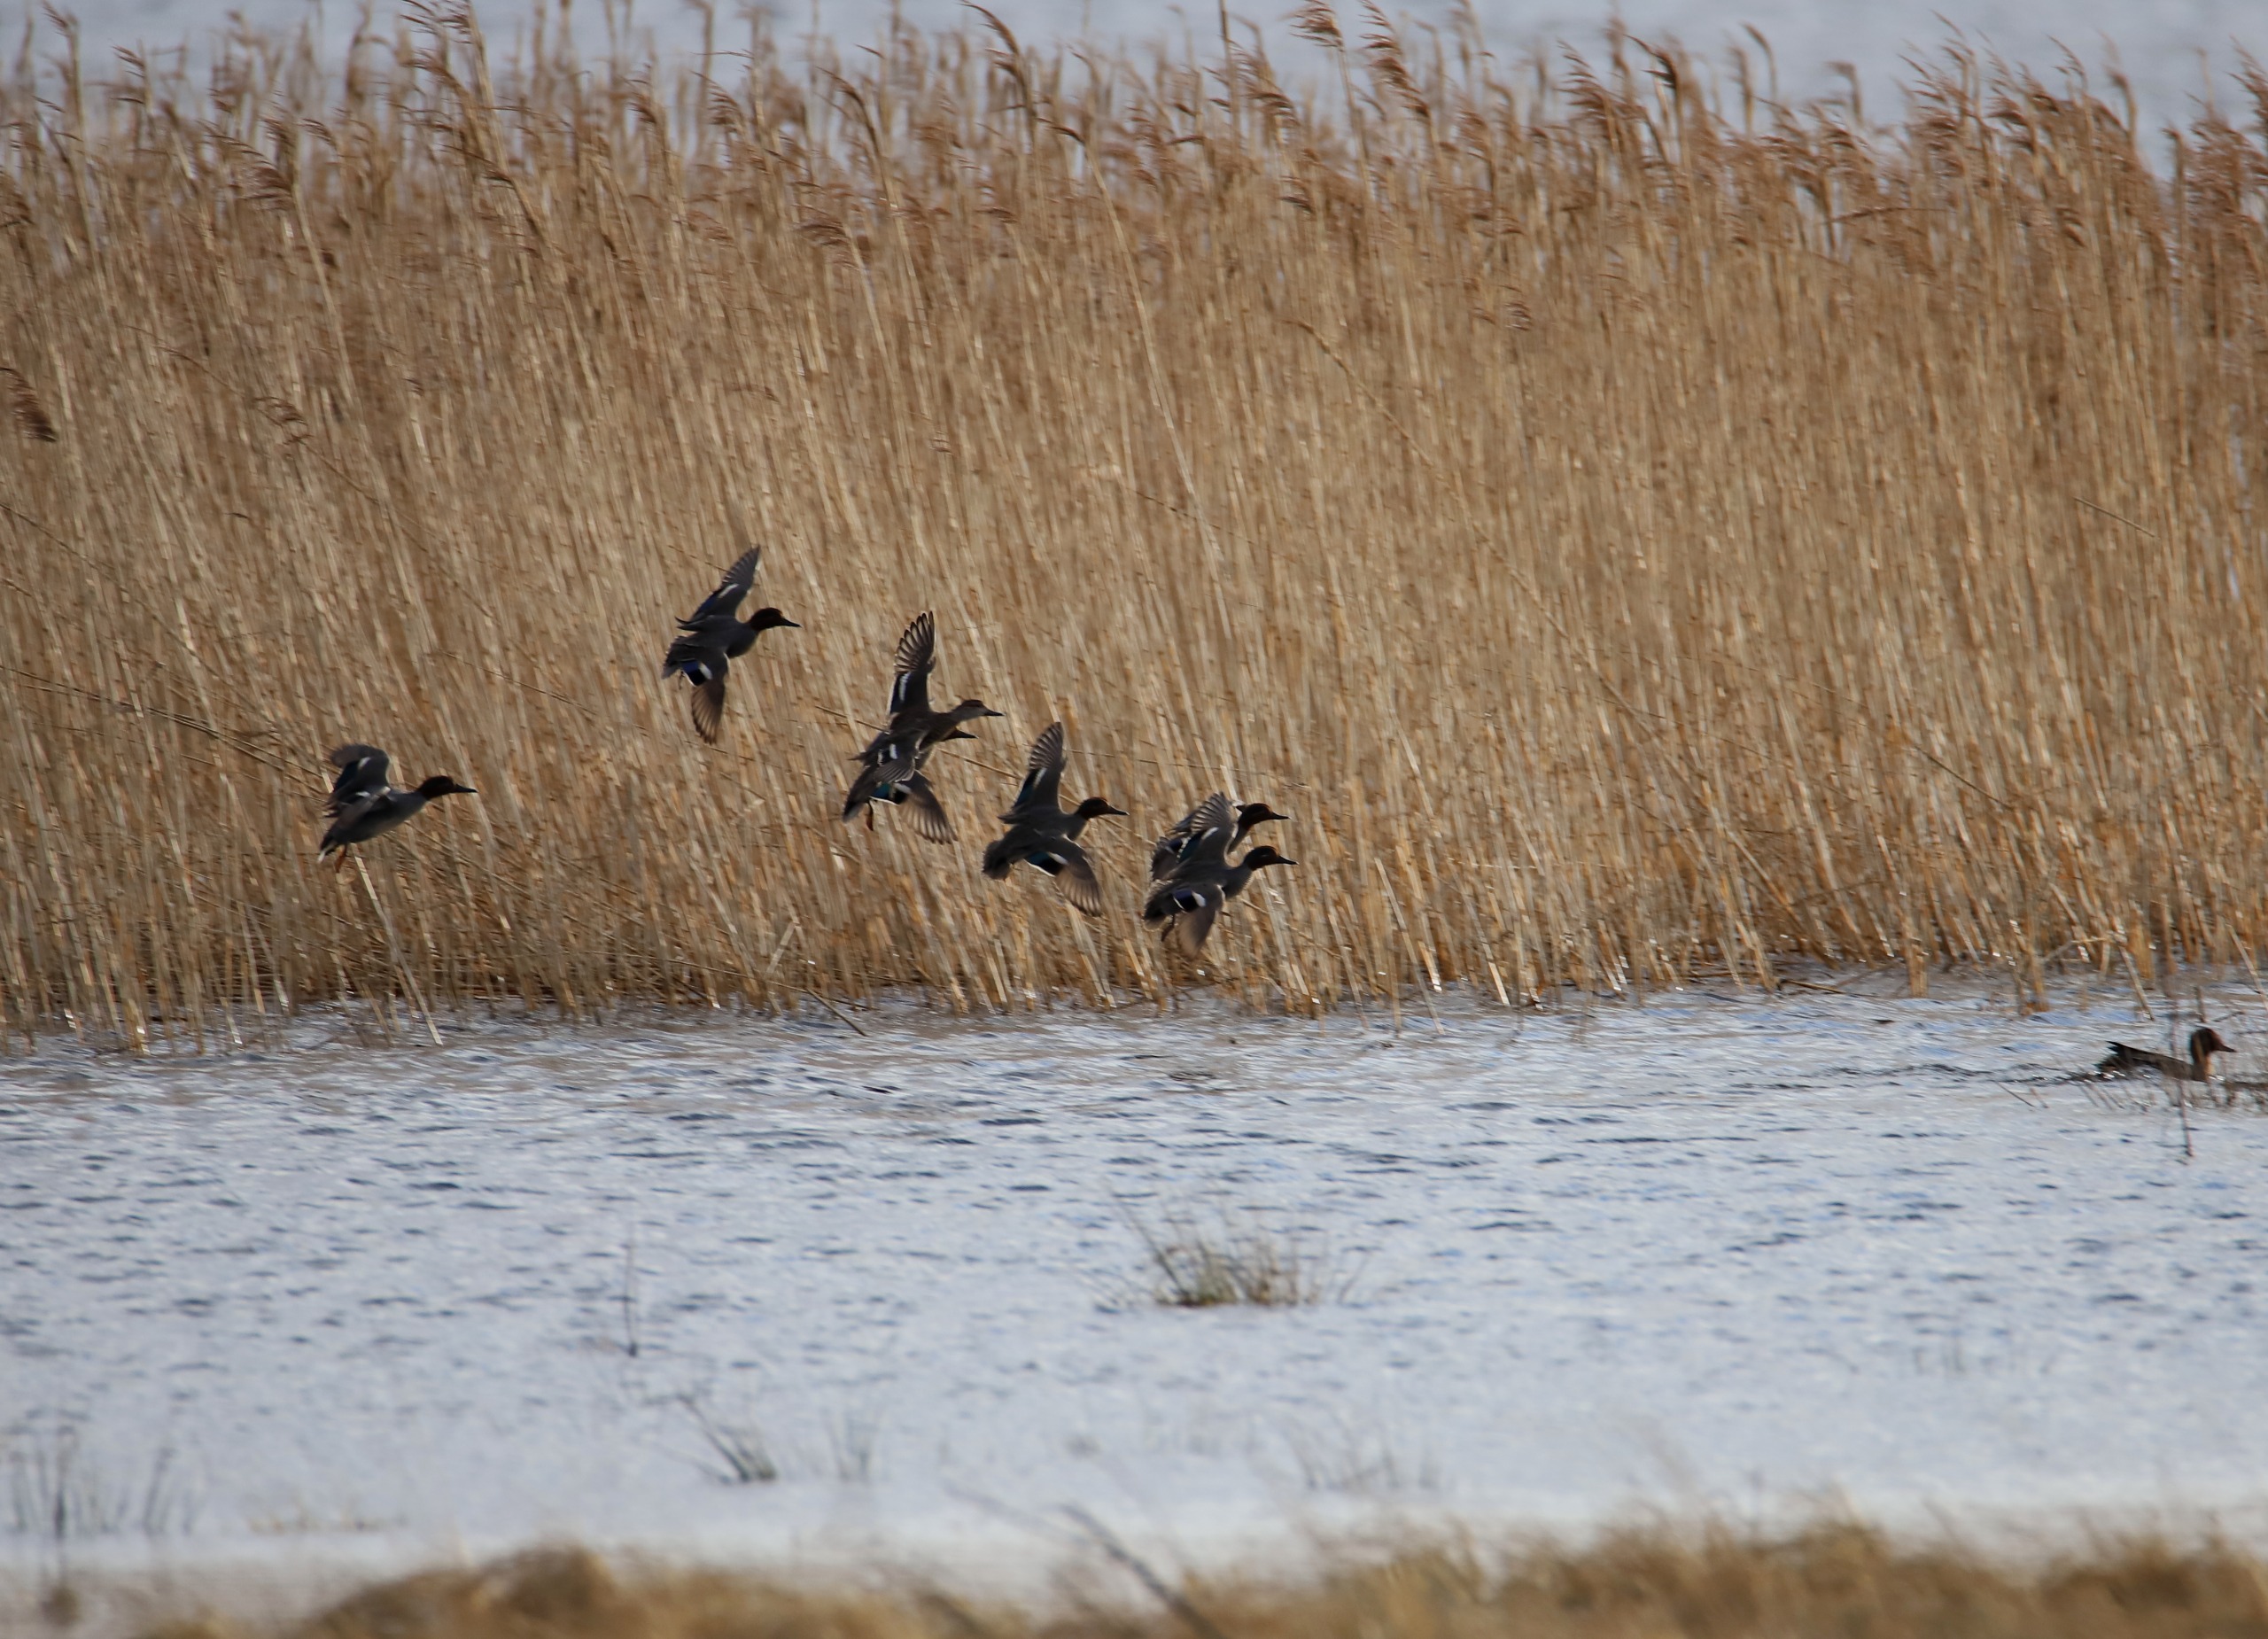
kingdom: Animalia
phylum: Chordata
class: Aves
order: Anseriformes
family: Anatidae
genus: Anas
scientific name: Anas crecca
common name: Krikand
